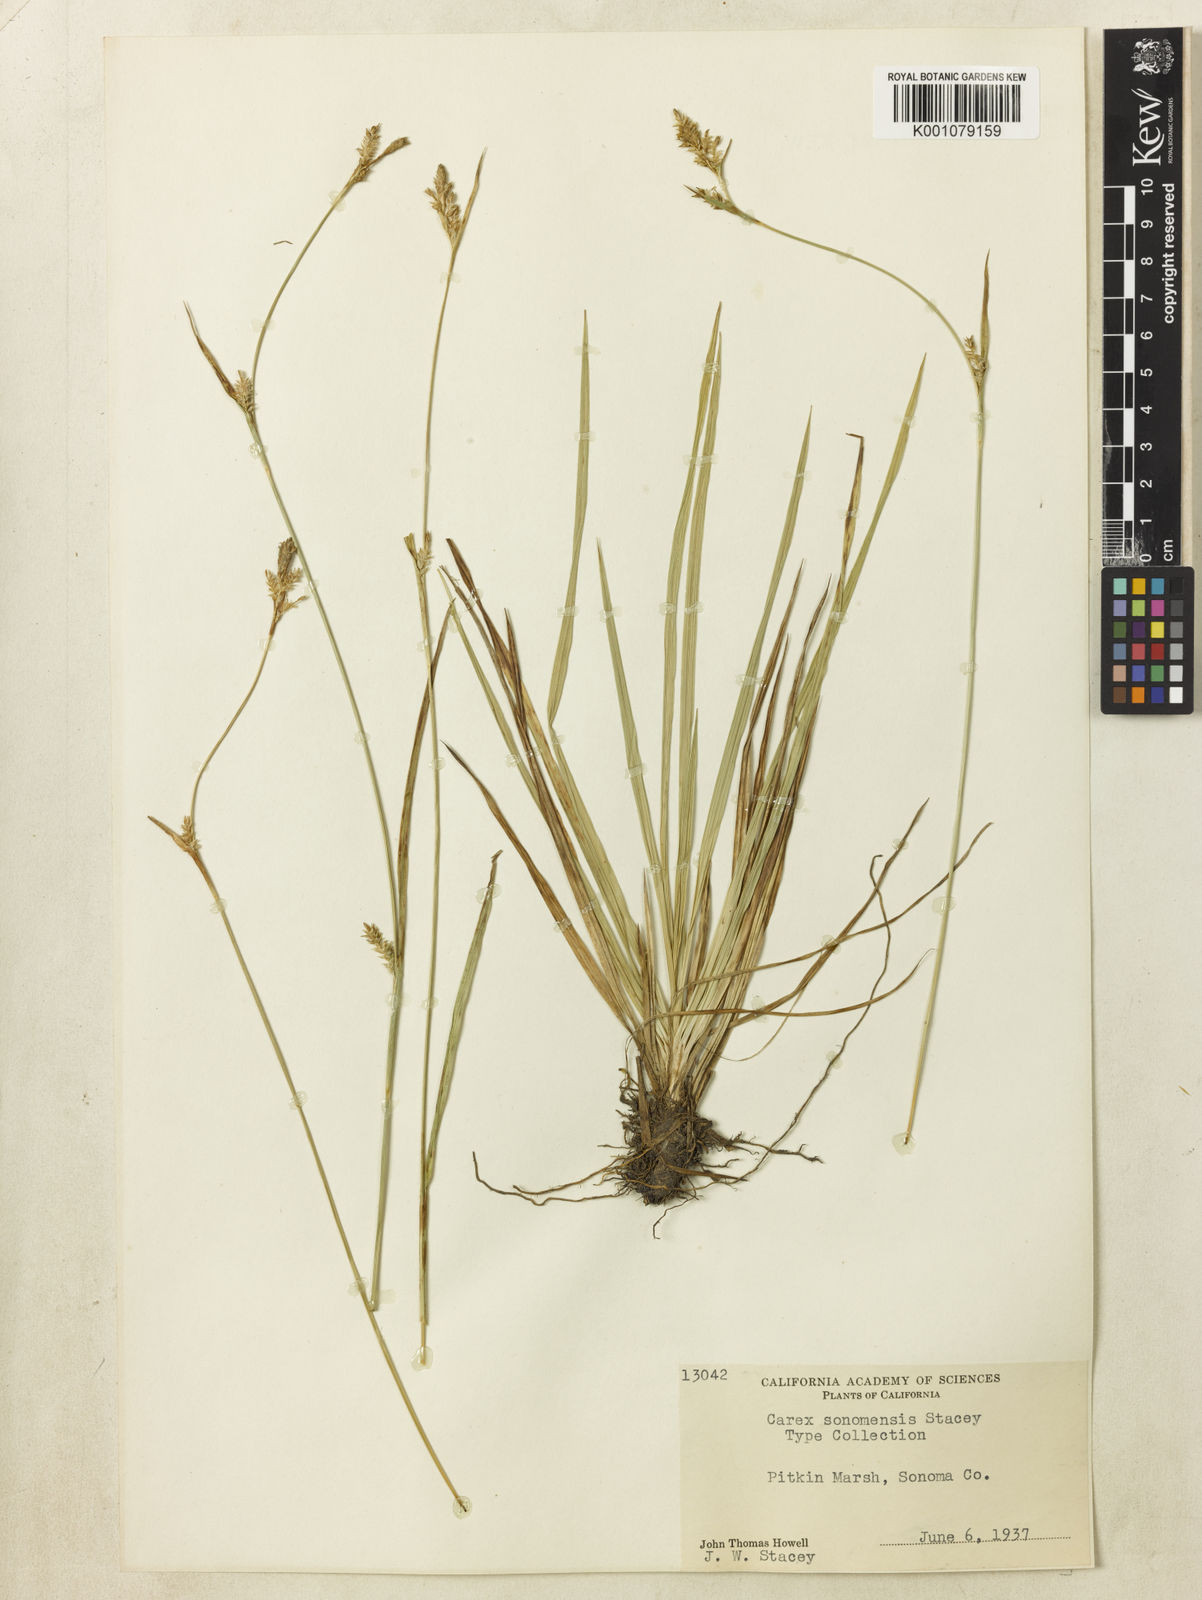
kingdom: Plantae
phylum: Tracheophyta
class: Liliopsida
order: Poales
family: Cyperaceae
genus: Carex
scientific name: Carex lemmonii
